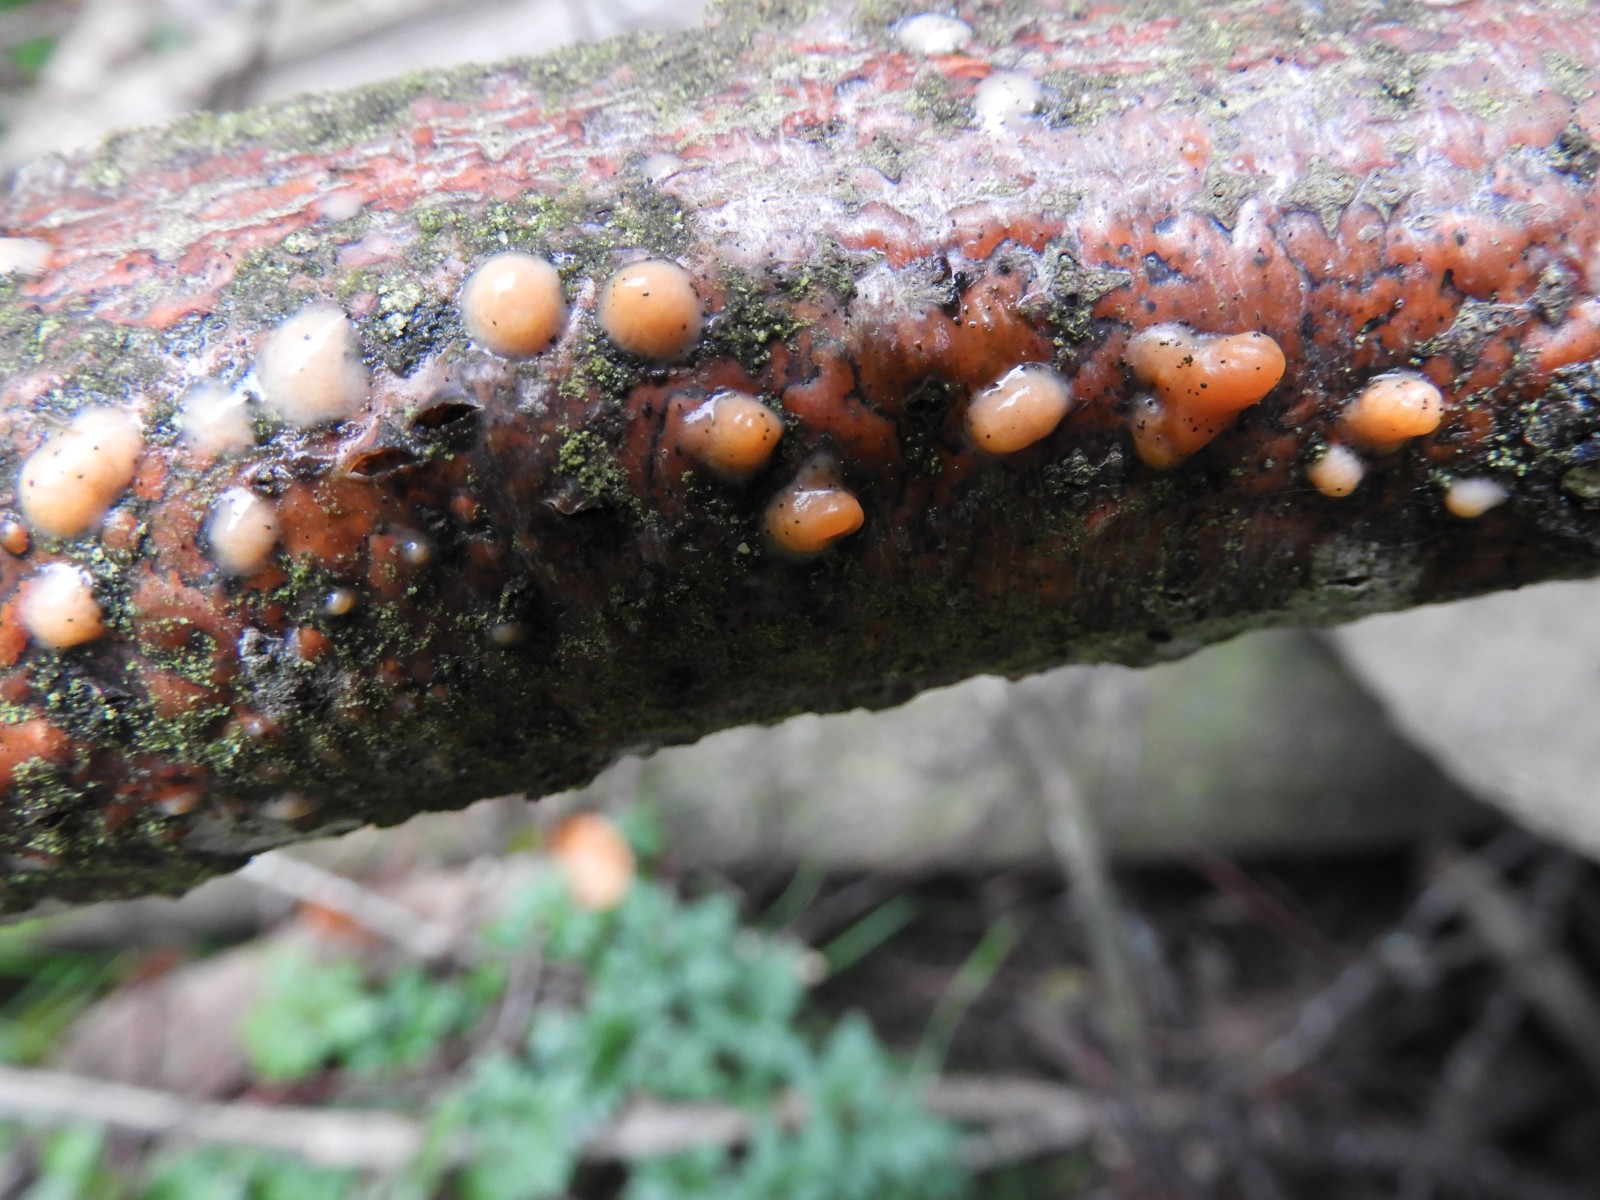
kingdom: Fungi
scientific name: Fungi
